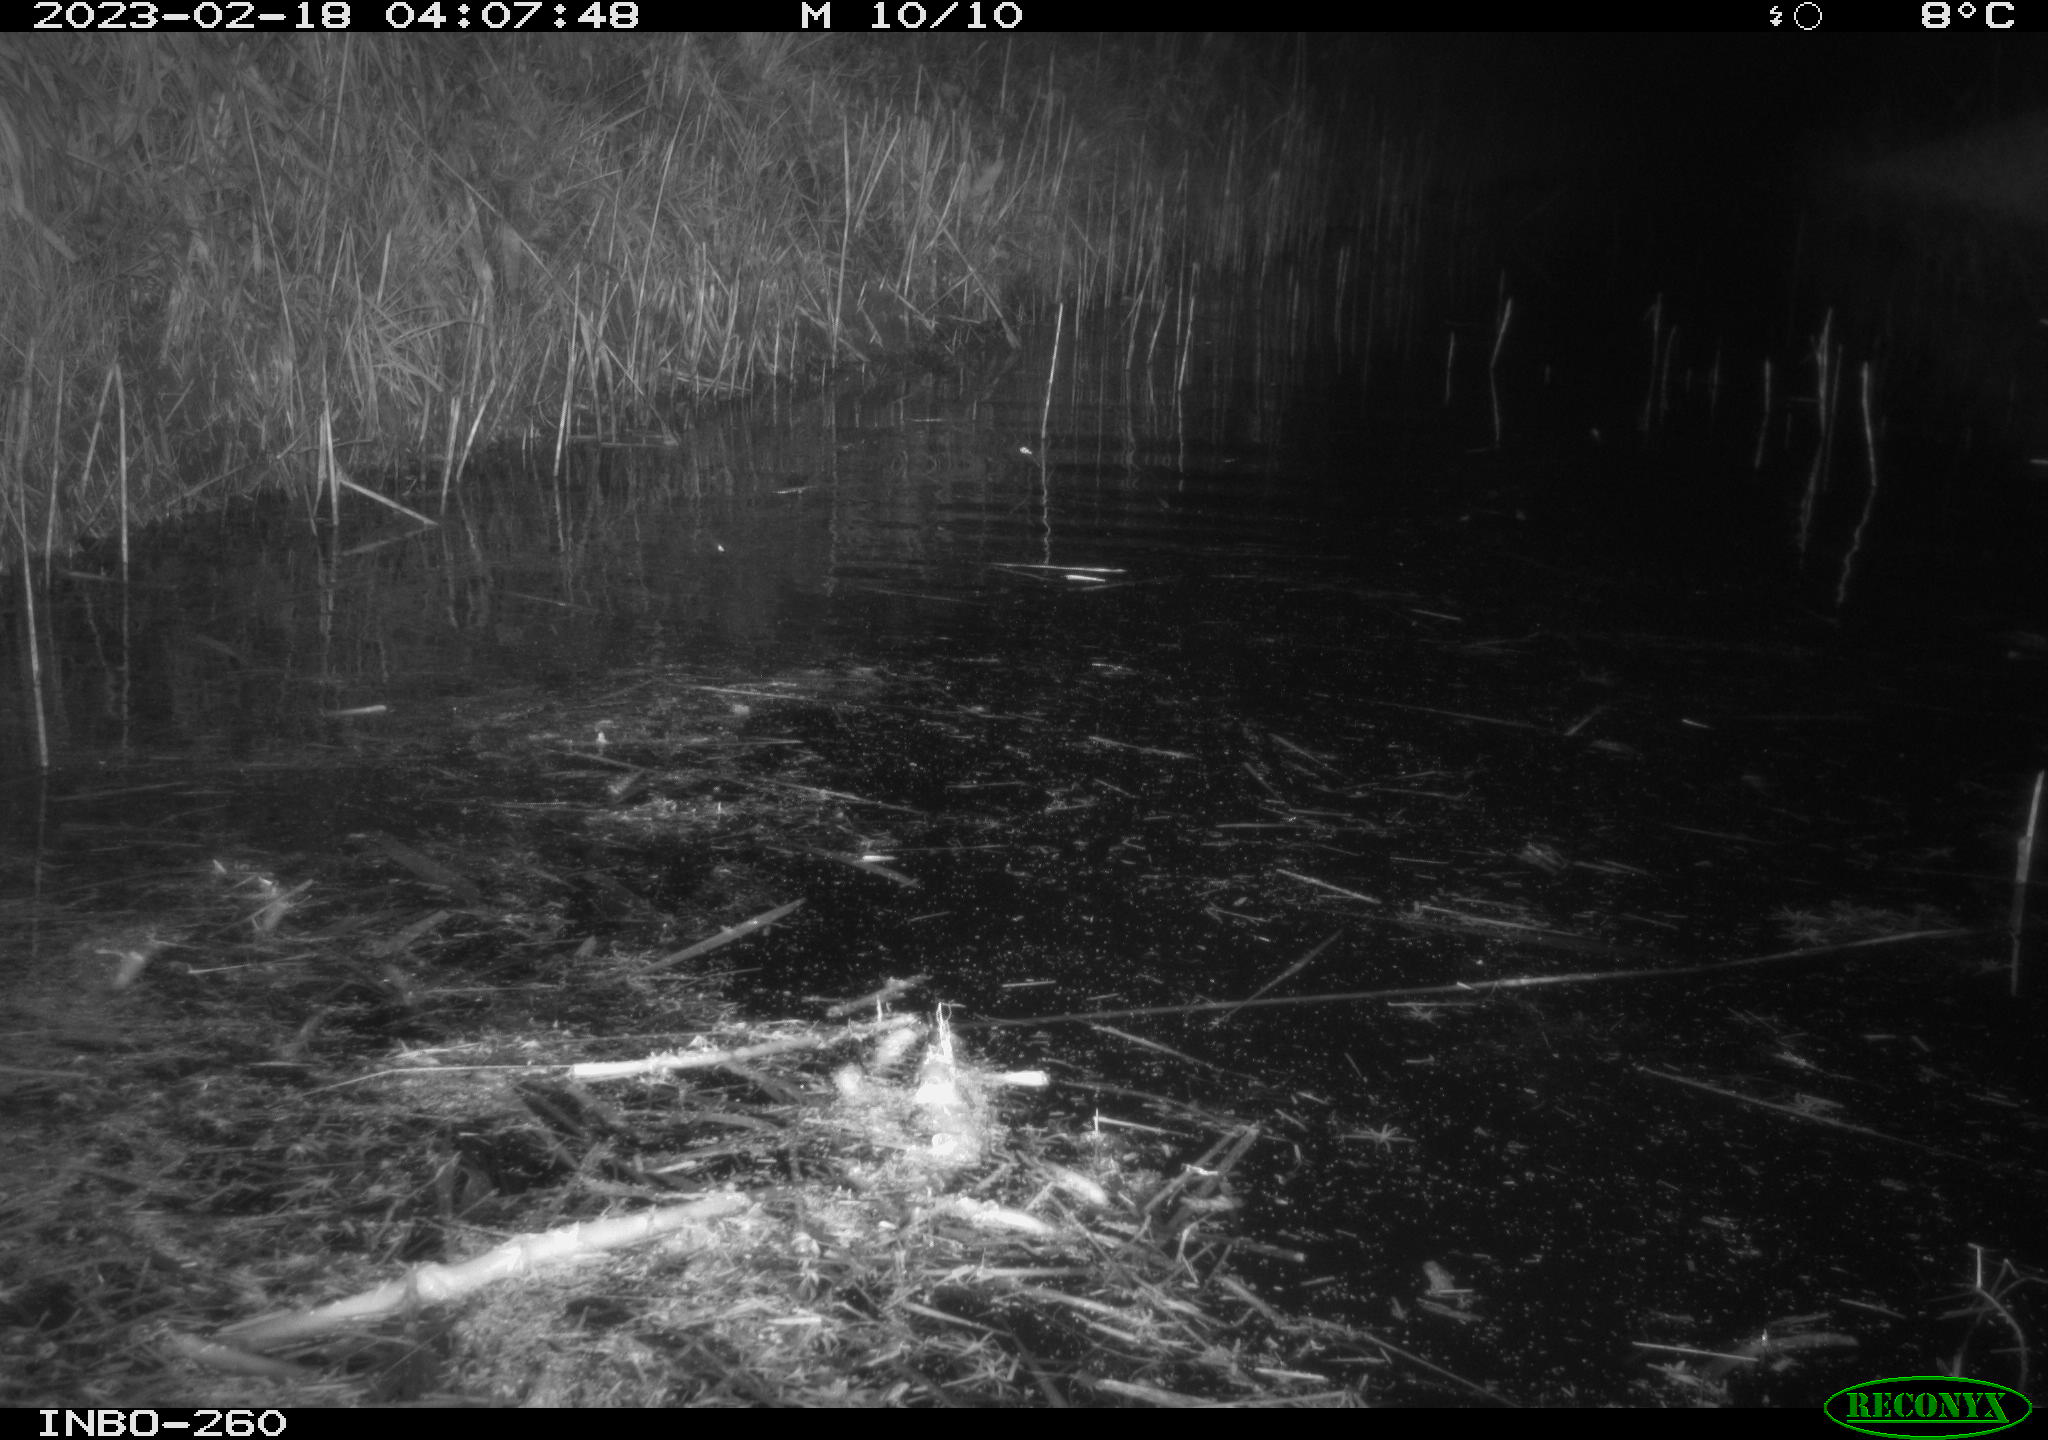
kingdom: Animalia
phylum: Chordata
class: Mammalia
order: Rodentia
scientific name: Rodentia
